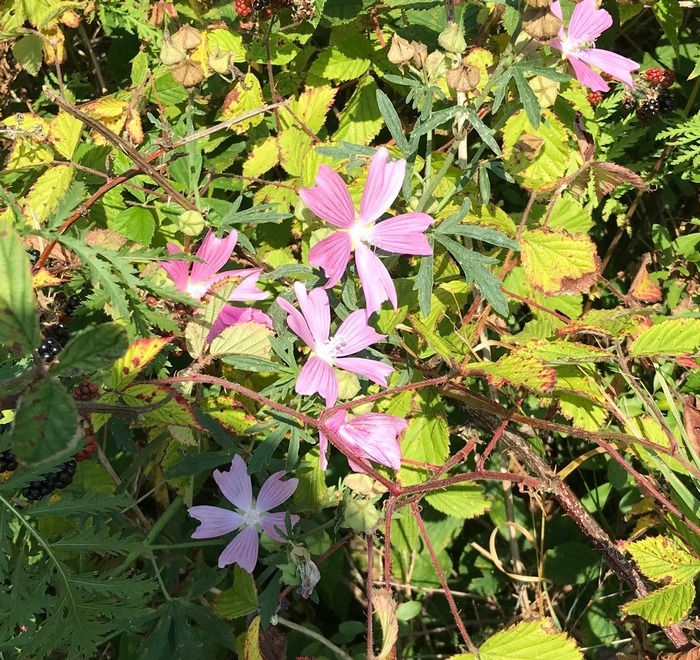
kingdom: Plantae
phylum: Tracheophyta
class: Magnoliopsida
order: Malvales
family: Malvaceae
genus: Malva
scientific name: Malva alcea
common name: Rosen-katost
